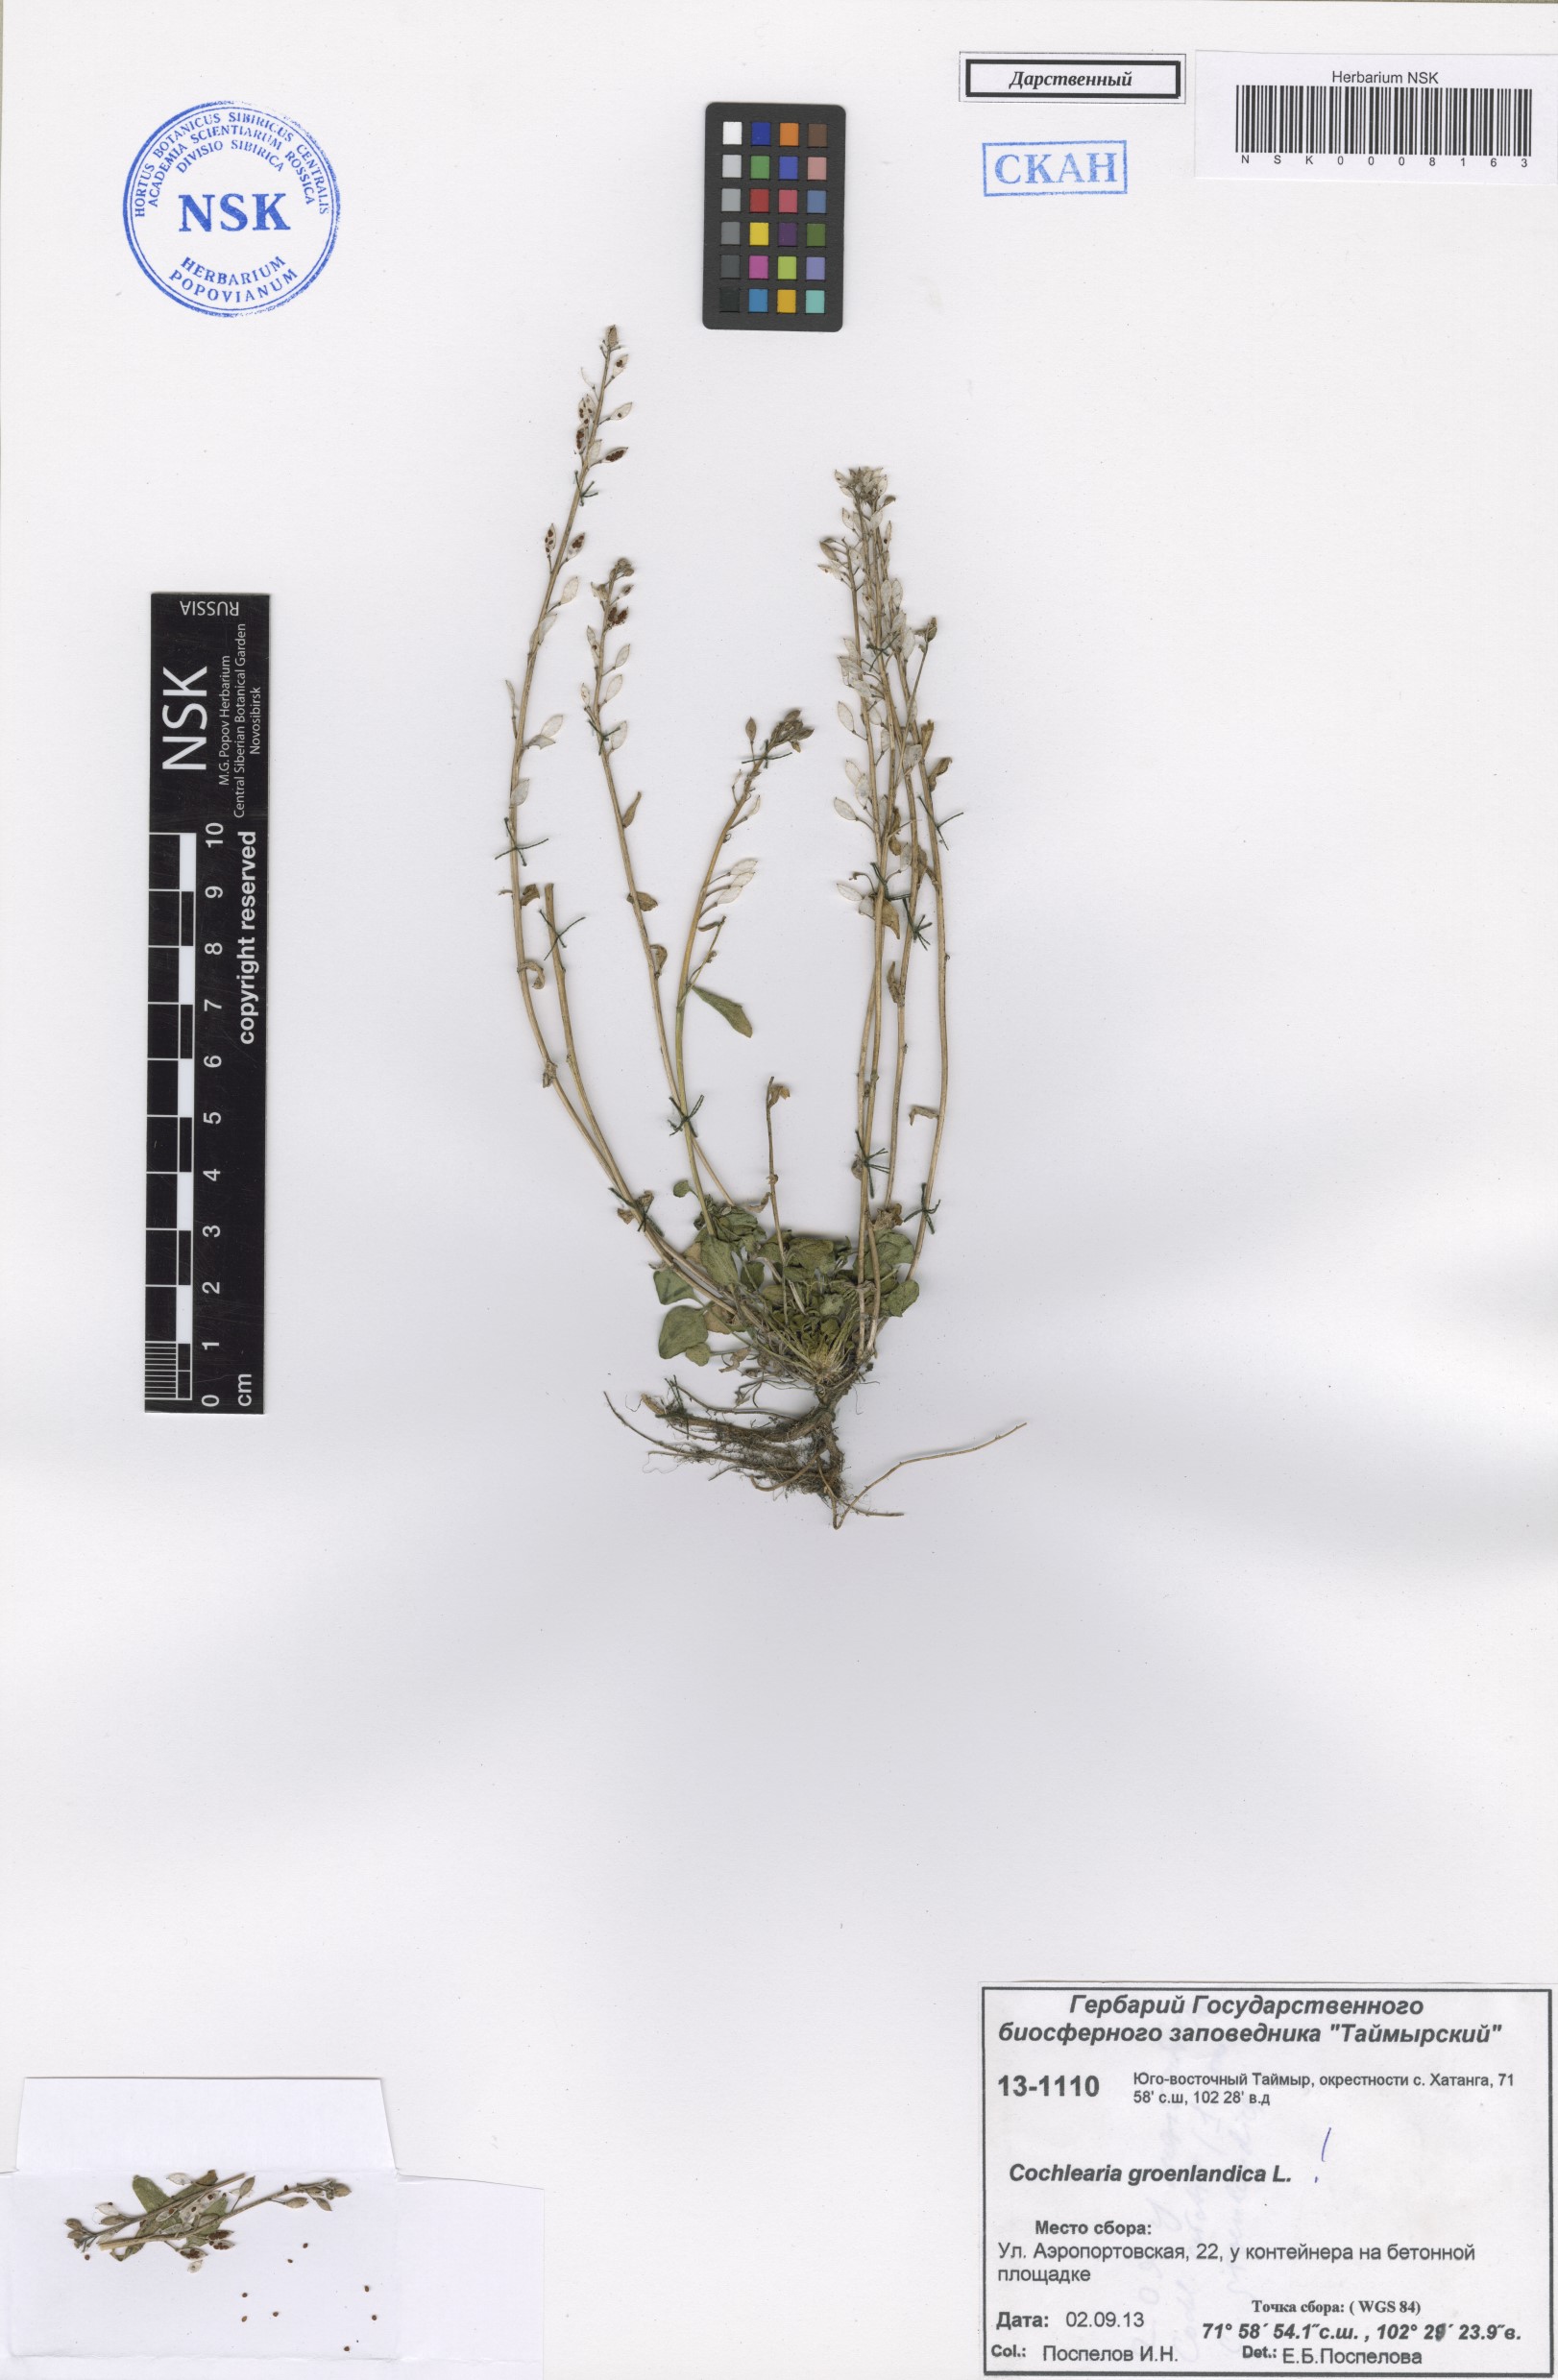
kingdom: Plantae
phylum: Tracheophyta
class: Magnoliopsida
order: Brassicales
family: Brassicaceae
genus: Cochlearia
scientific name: Cochlearia groenlandica
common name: Danish scurvygrass
